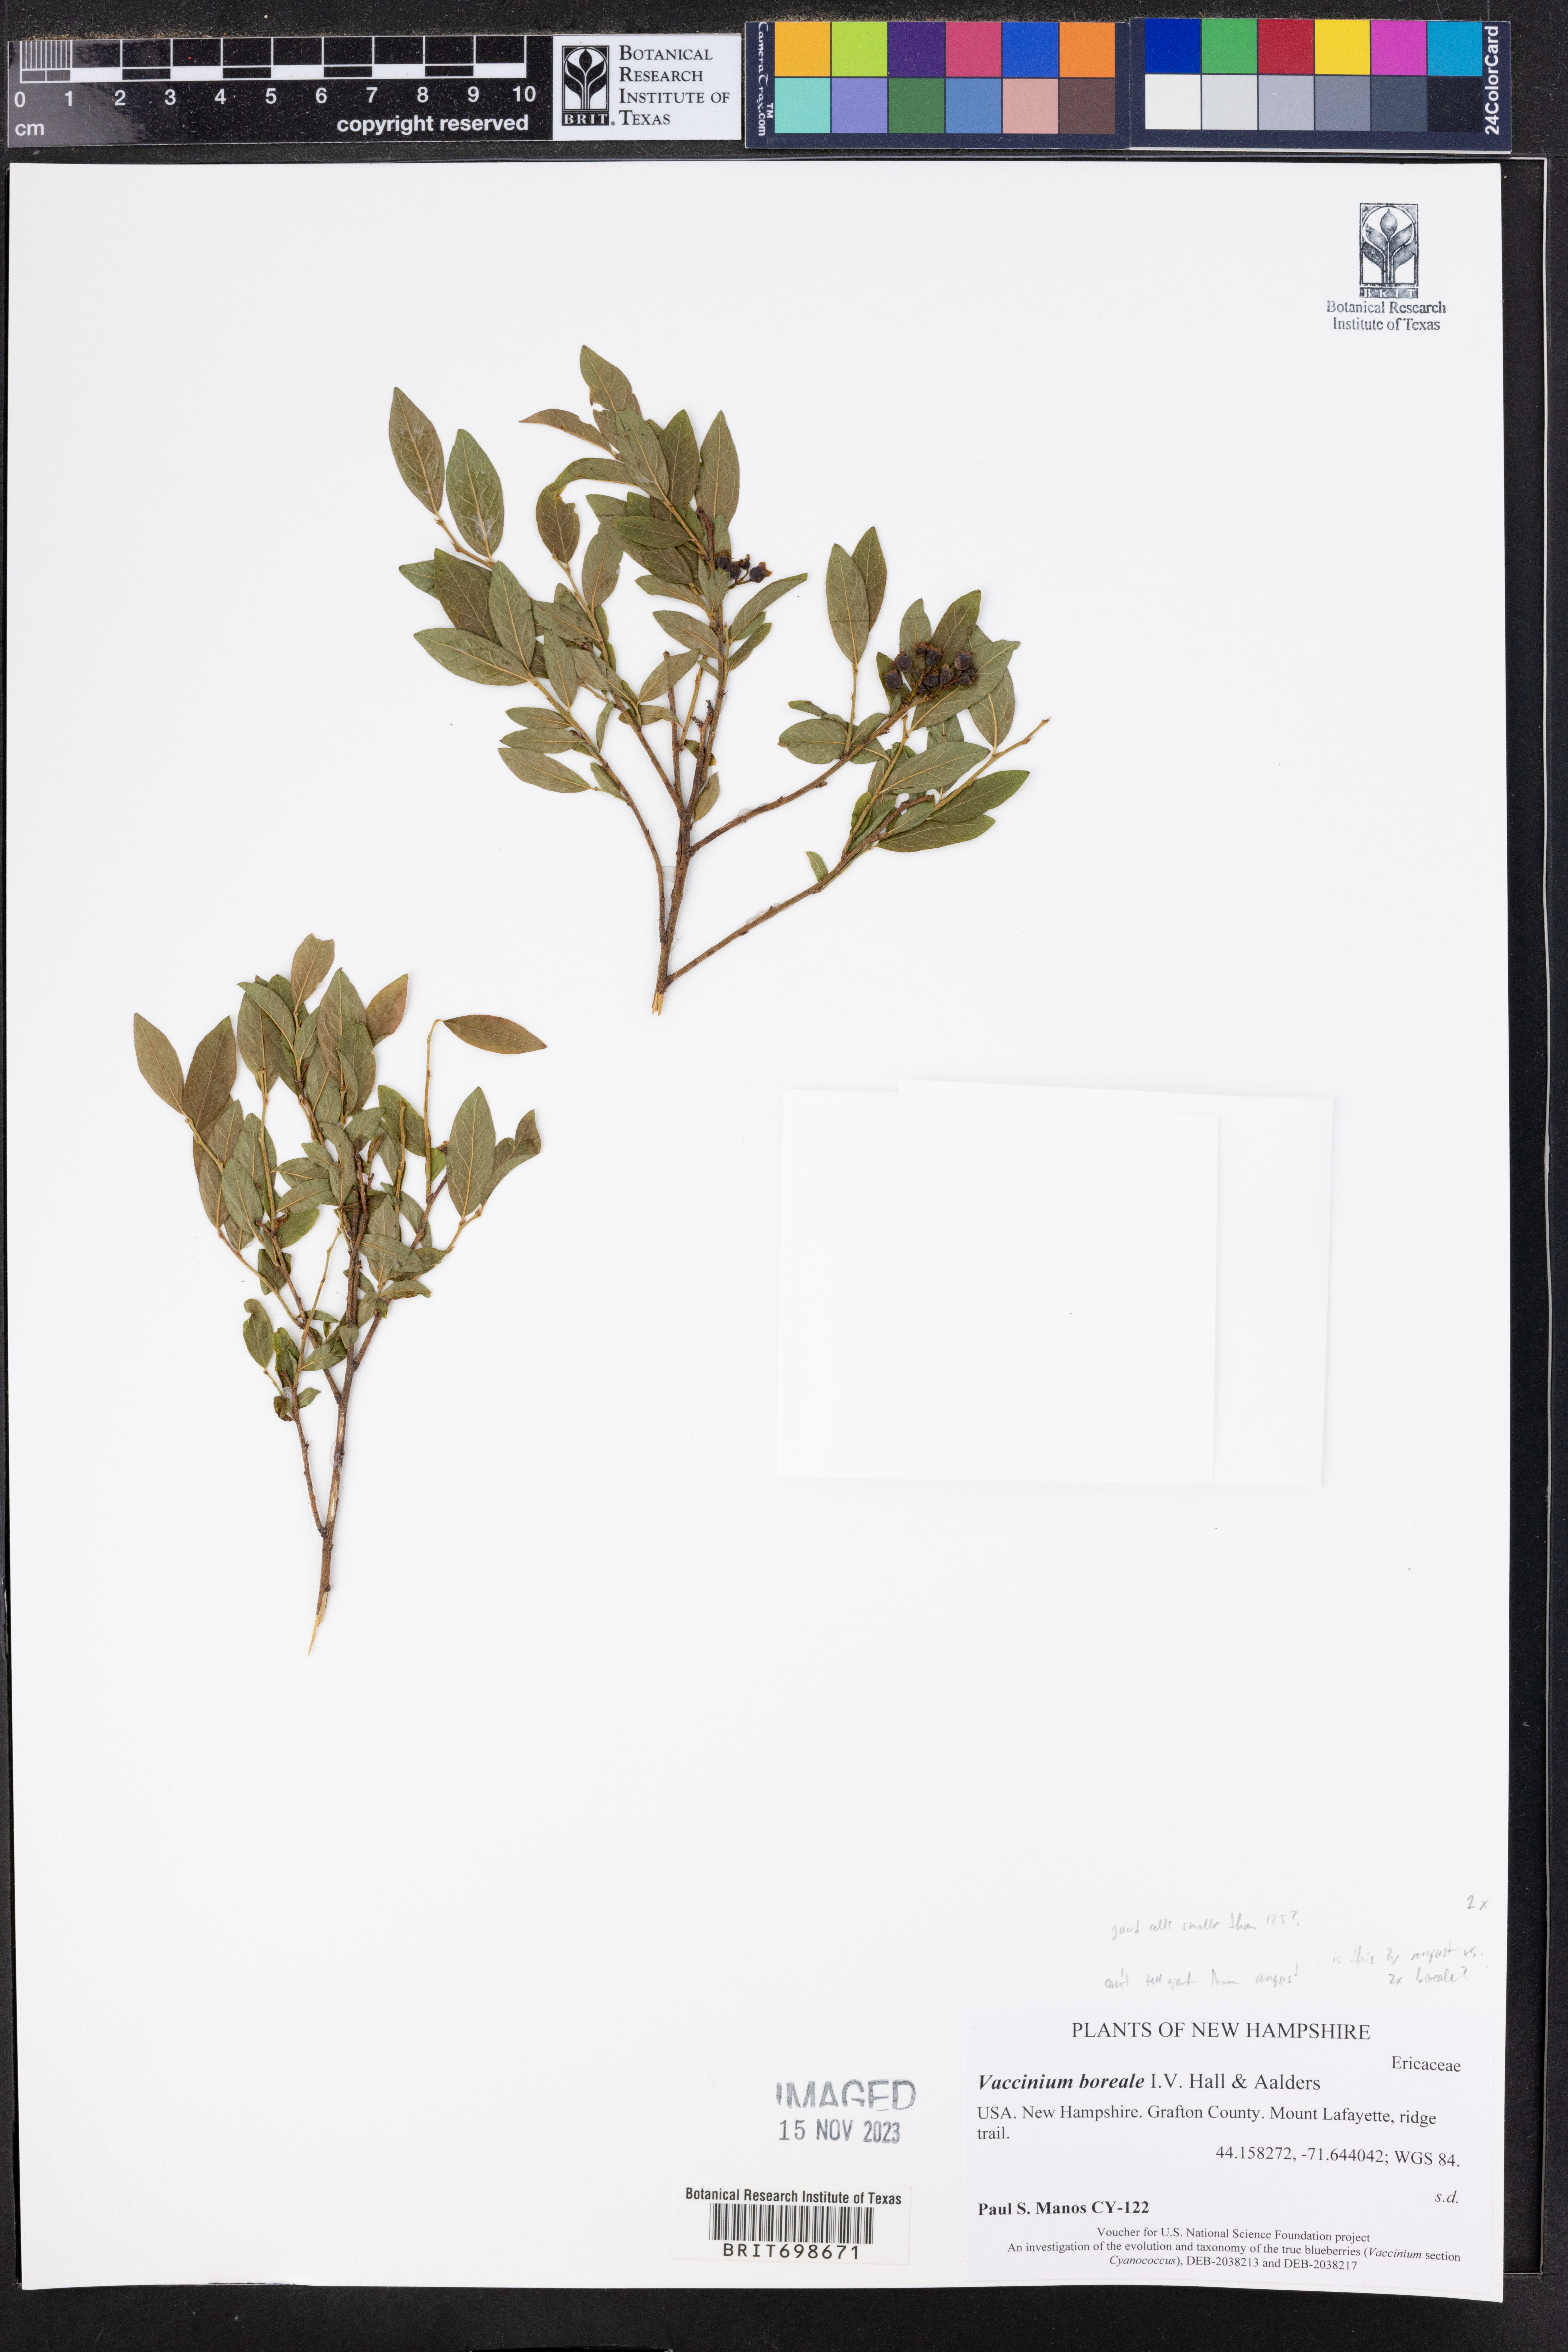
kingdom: Plantae
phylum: Tracheophyta
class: Magnoliopsida
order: Ericales
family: Ericaceae
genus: Vaccinium
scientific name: Vaccinium boreale
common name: Northern blueberry
